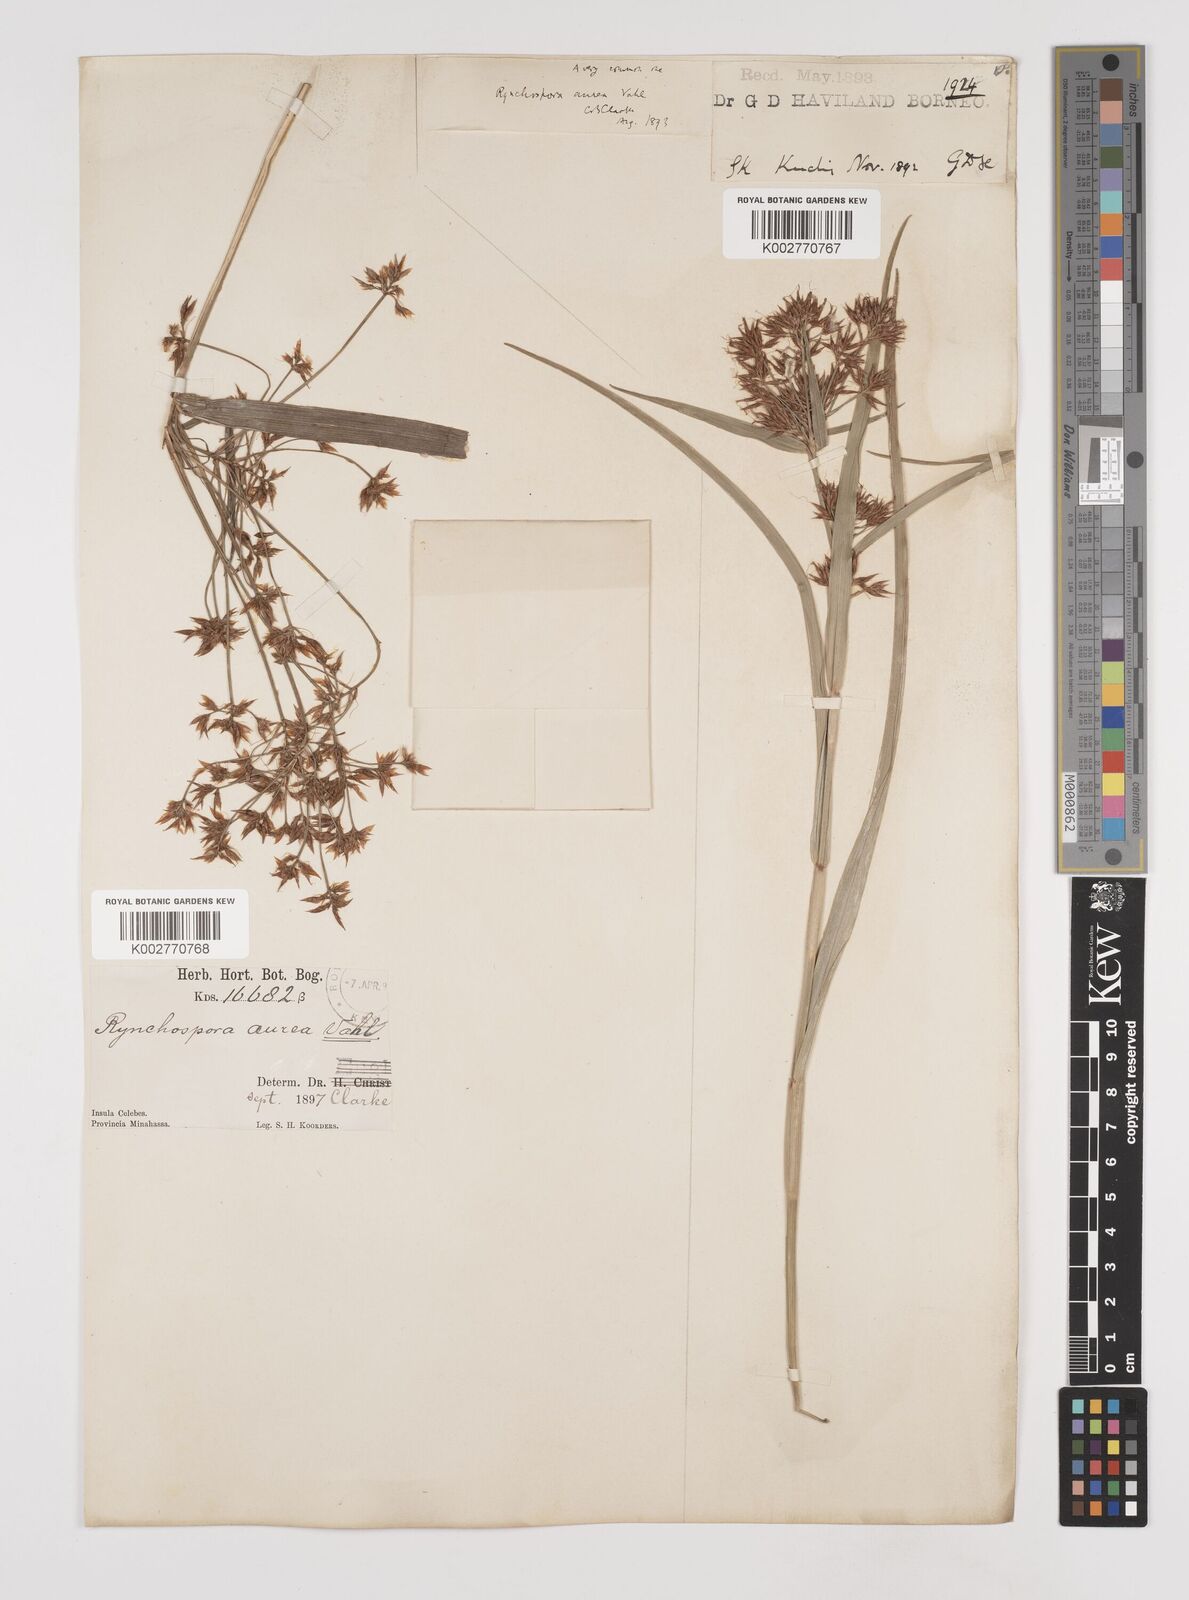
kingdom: Plantae
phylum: Tracheophyta
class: Liliopsida
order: Poales
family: Cyperaceae
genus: Rhynchospora
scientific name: Rhynchospora corymbosa
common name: Golden beak sedge
